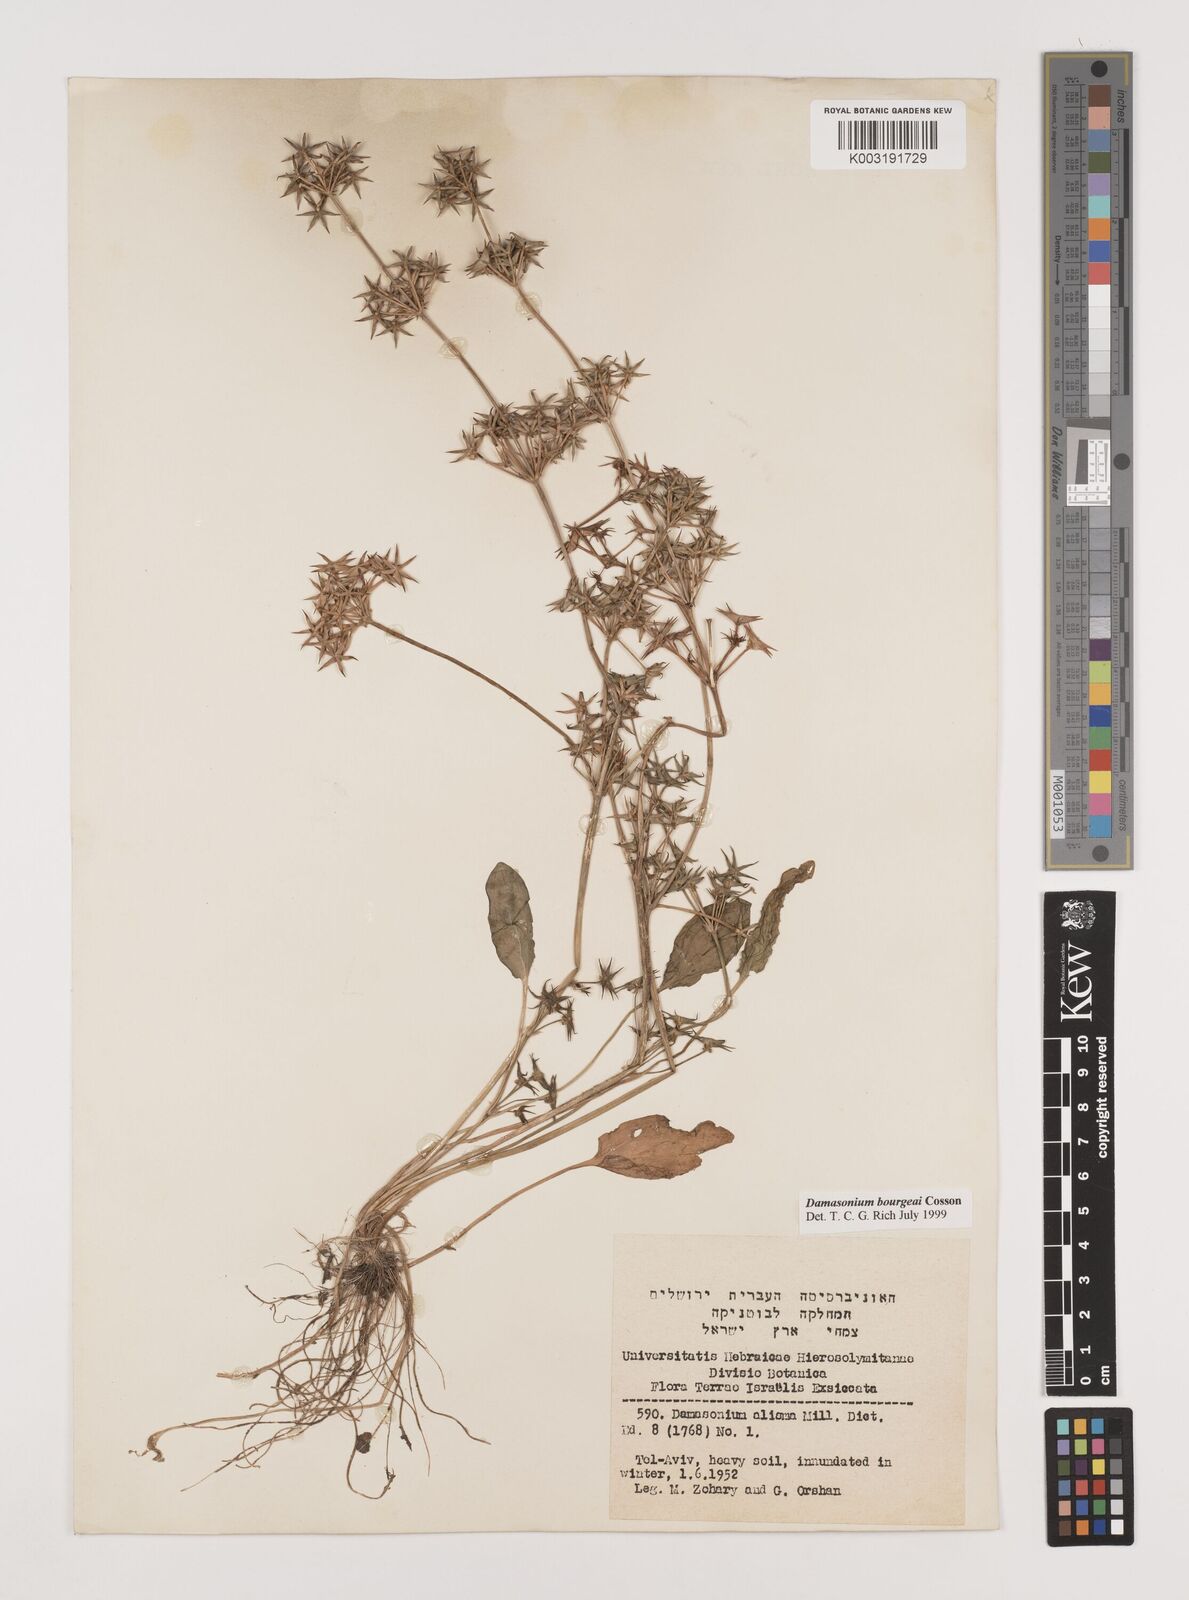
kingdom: Plantae
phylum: Tracheophyta
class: Liliopsida
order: Alismatales
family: Alismataceae
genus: Damasonium
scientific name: Damasonium alisma
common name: Starfruit
